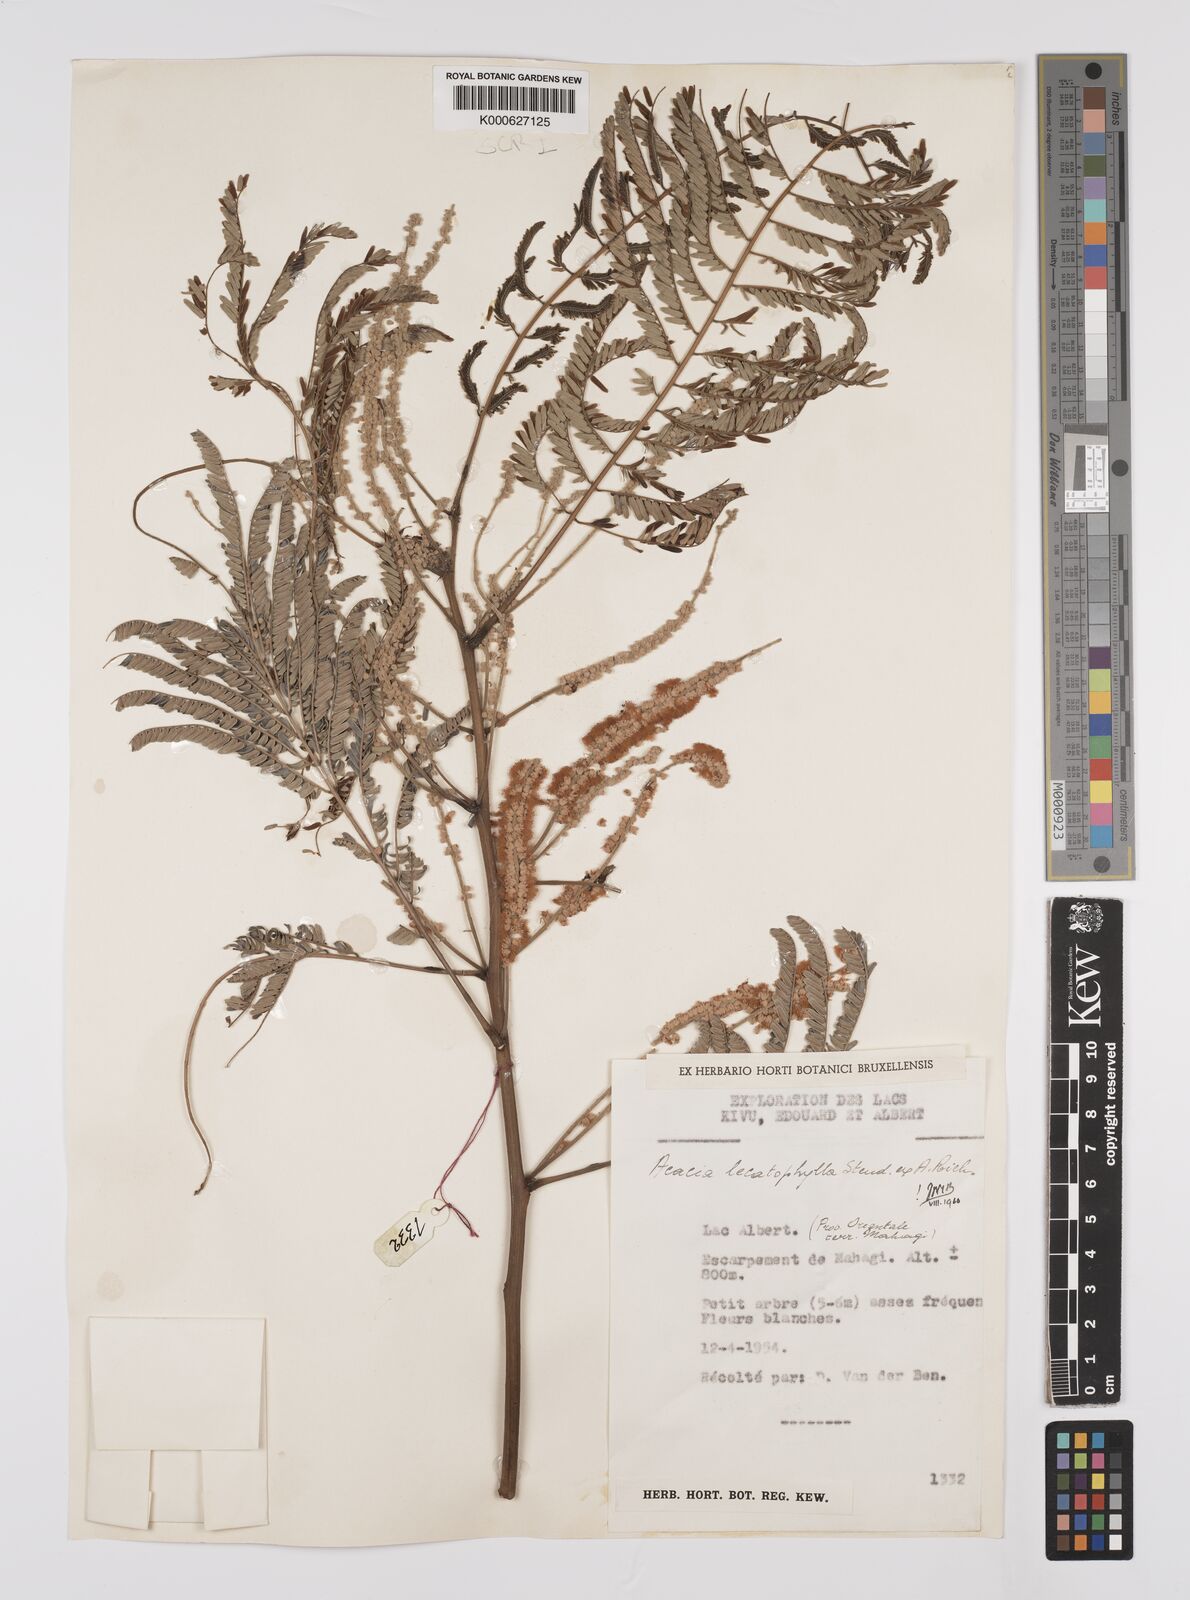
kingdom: Plantae
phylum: Tracheophyta
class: Magnoliopsida
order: Fabales
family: Fabaceae
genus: Senegalia
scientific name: Senegalia hecatophylla
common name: Long pod
